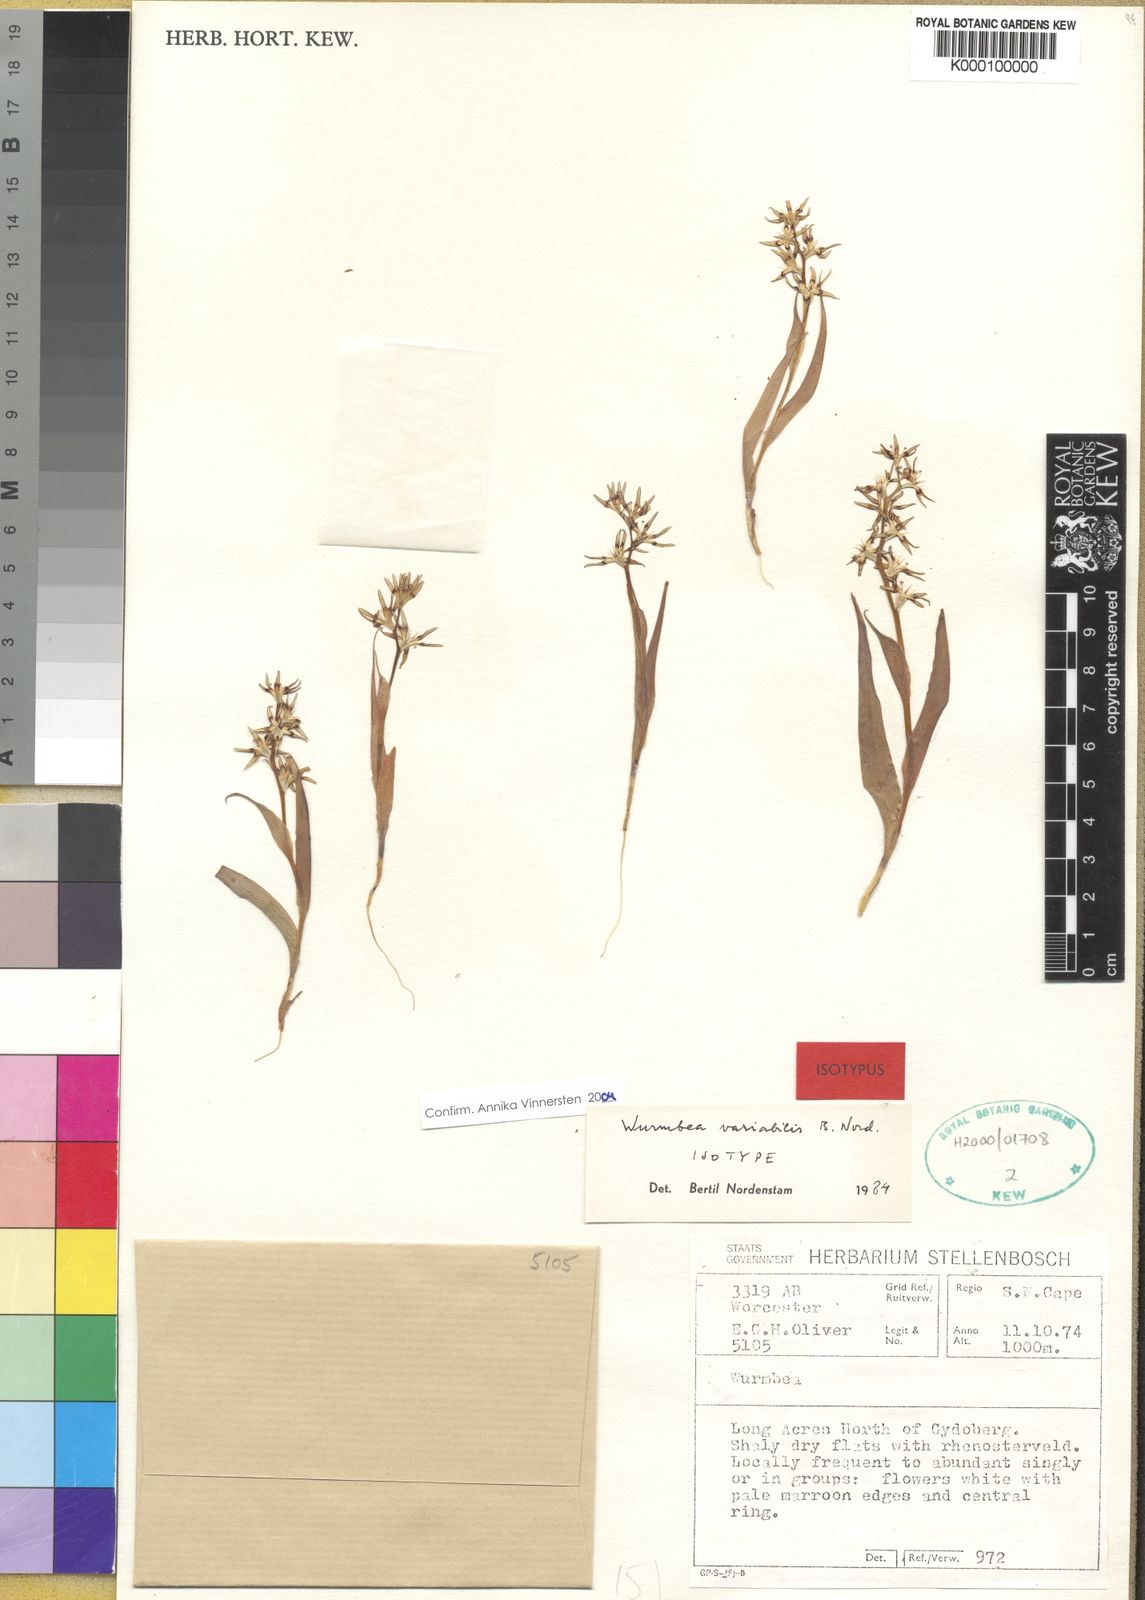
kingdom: Plantae
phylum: Tracheophyta
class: Liliopsida
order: Liliales
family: Colchicaceae
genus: Wurmbea
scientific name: Wurmbea variabilis
